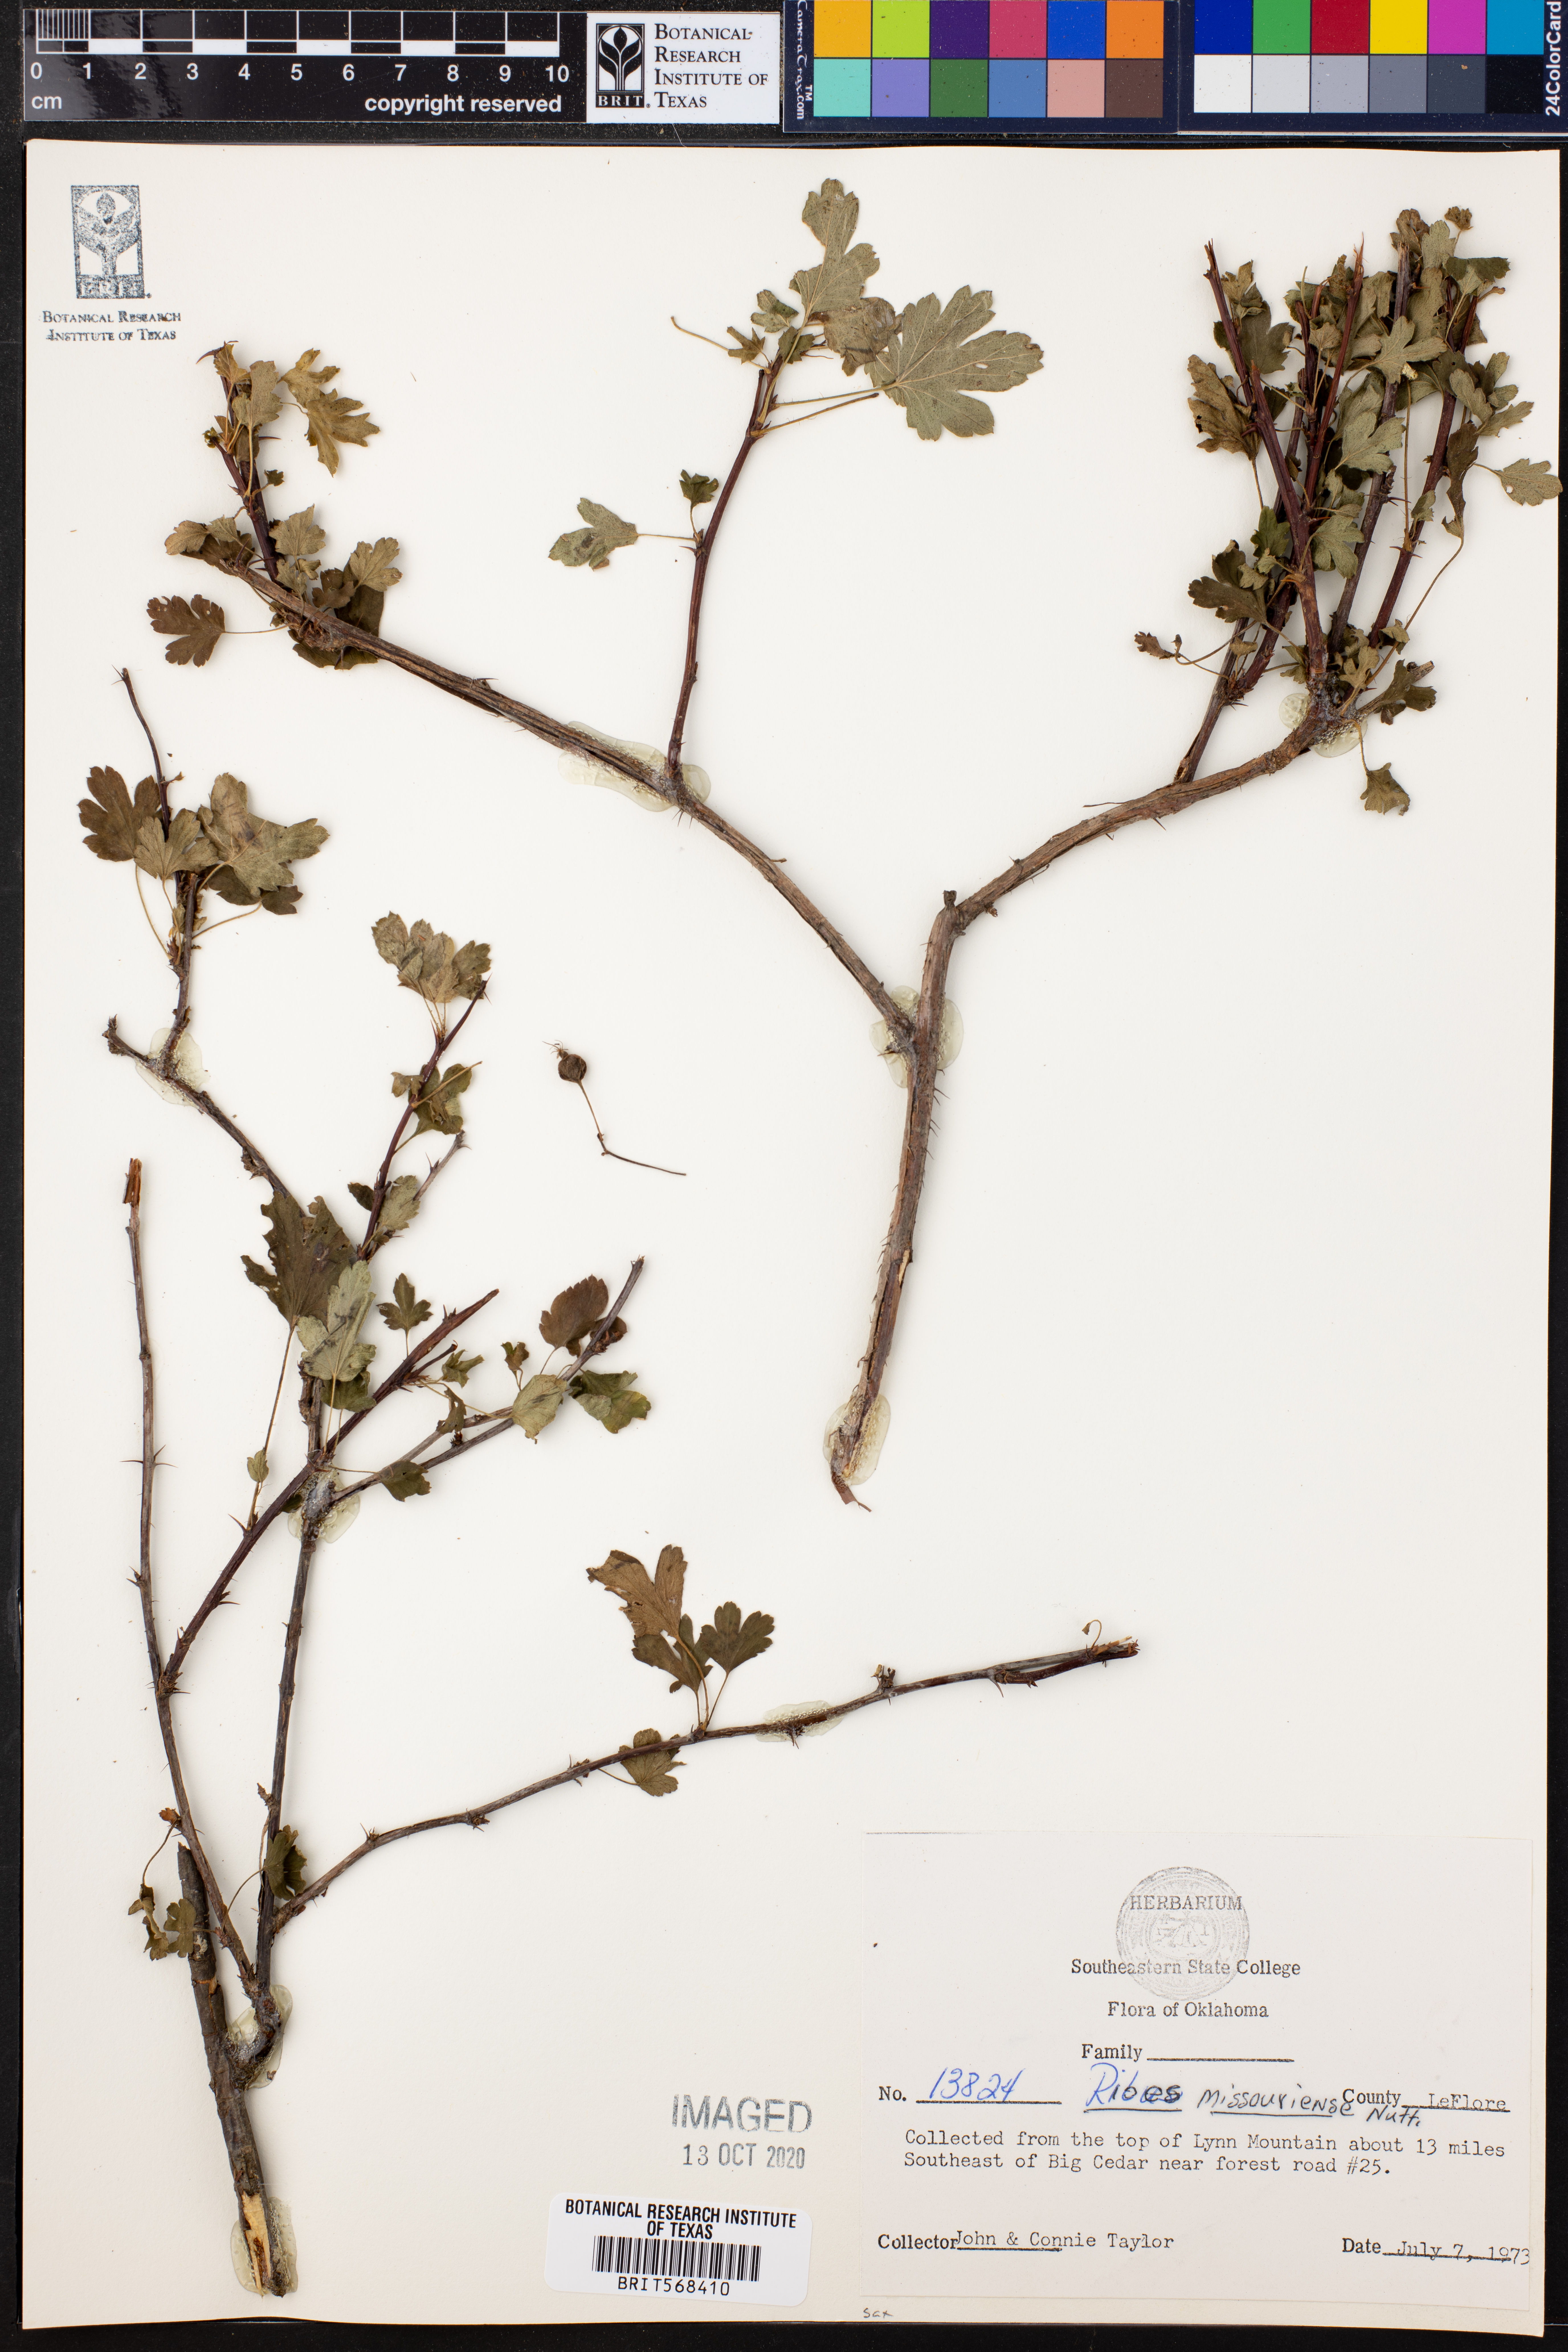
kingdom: Plantae
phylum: Tracheophyta
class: Magnoliopsida
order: Saxifragales
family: Grossulariaceae
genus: Ribes
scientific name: Ribes missouriense
